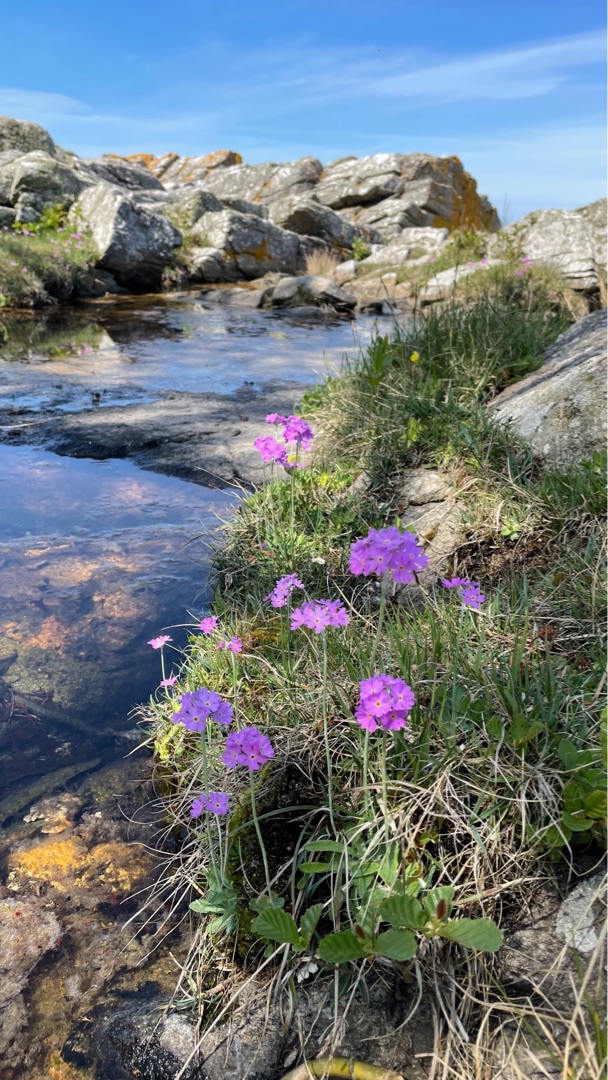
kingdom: Plantae
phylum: Tracheophyta
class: Magnoliopsida
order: Ericales
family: Primulaceae
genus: Primula
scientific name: Primula farinosa
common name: Melet kodriver
